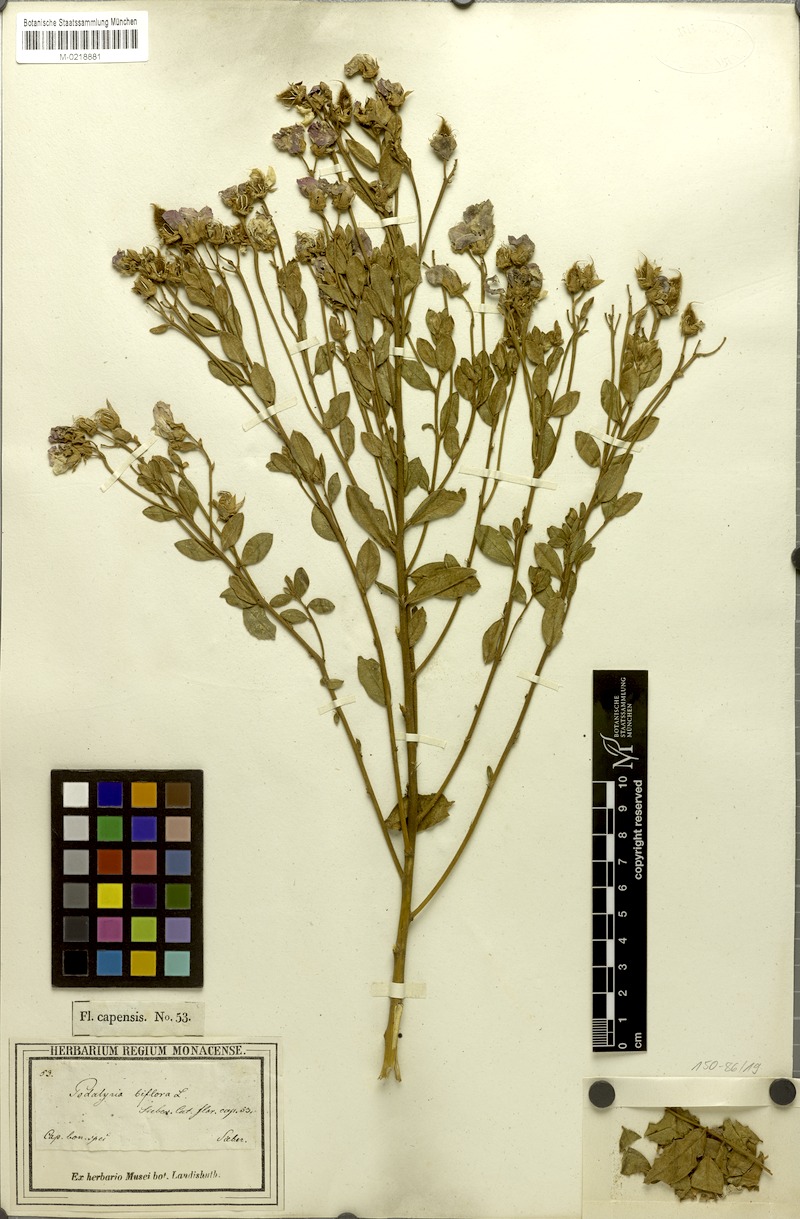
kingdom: Plantae
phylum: Tracheophyta
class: Magnoliopsida
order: Fabales
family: Fabaceae
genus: Podalyria
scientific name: Podalyria biflora
